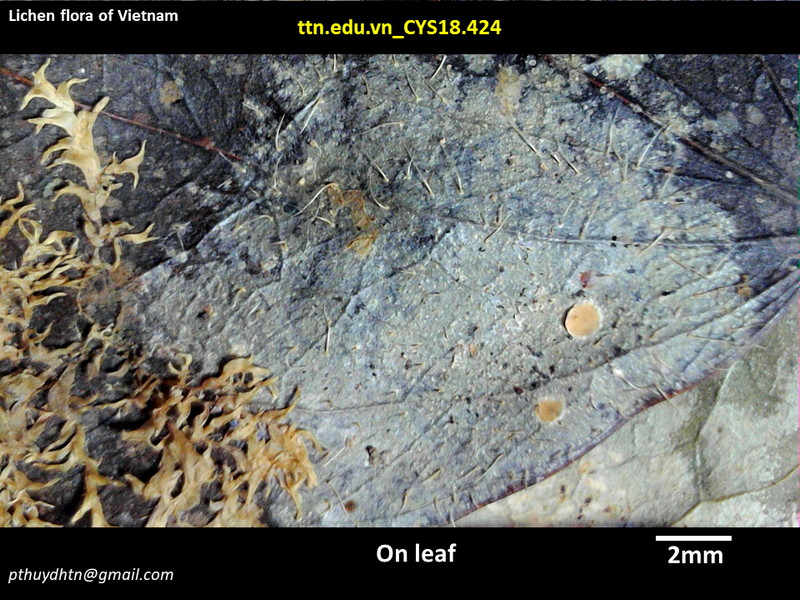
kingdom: Fungi
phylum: Ascomycota
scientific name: Ascomycota
